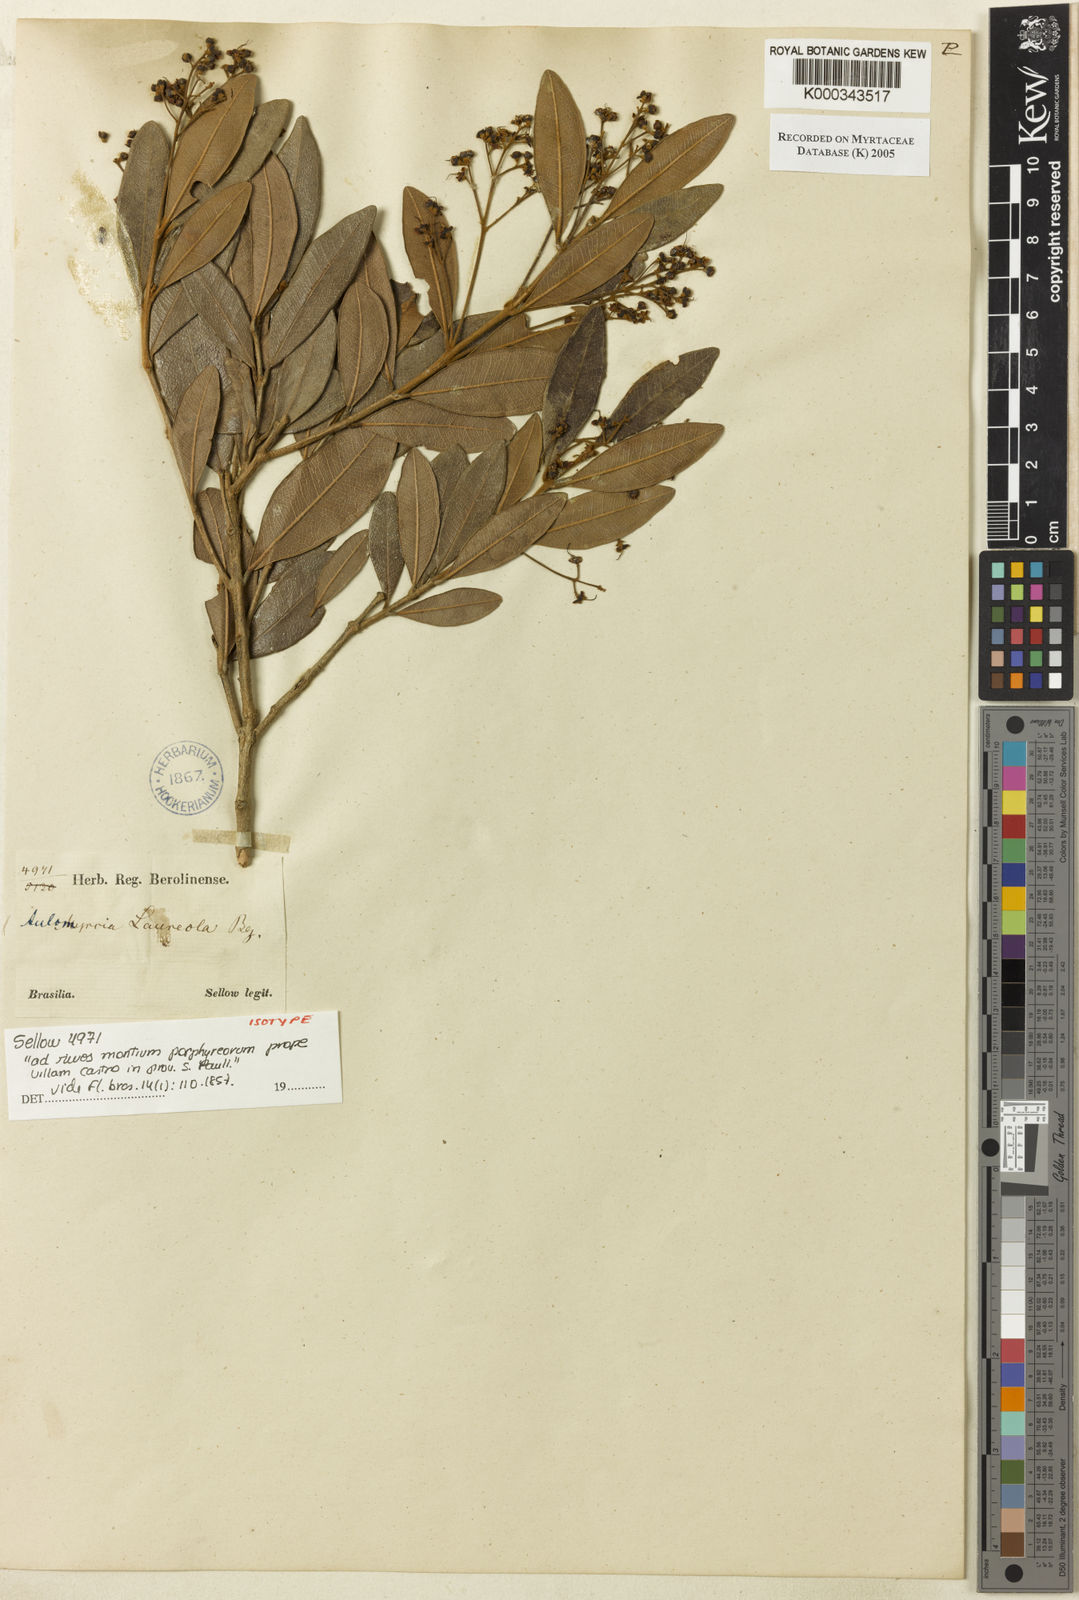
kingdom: Plantae
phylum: Tracheophyta
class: Magnoliopsida
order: Myrtales
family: Myrtaceae
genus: Myrcia
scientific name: Myrcia venulosa
